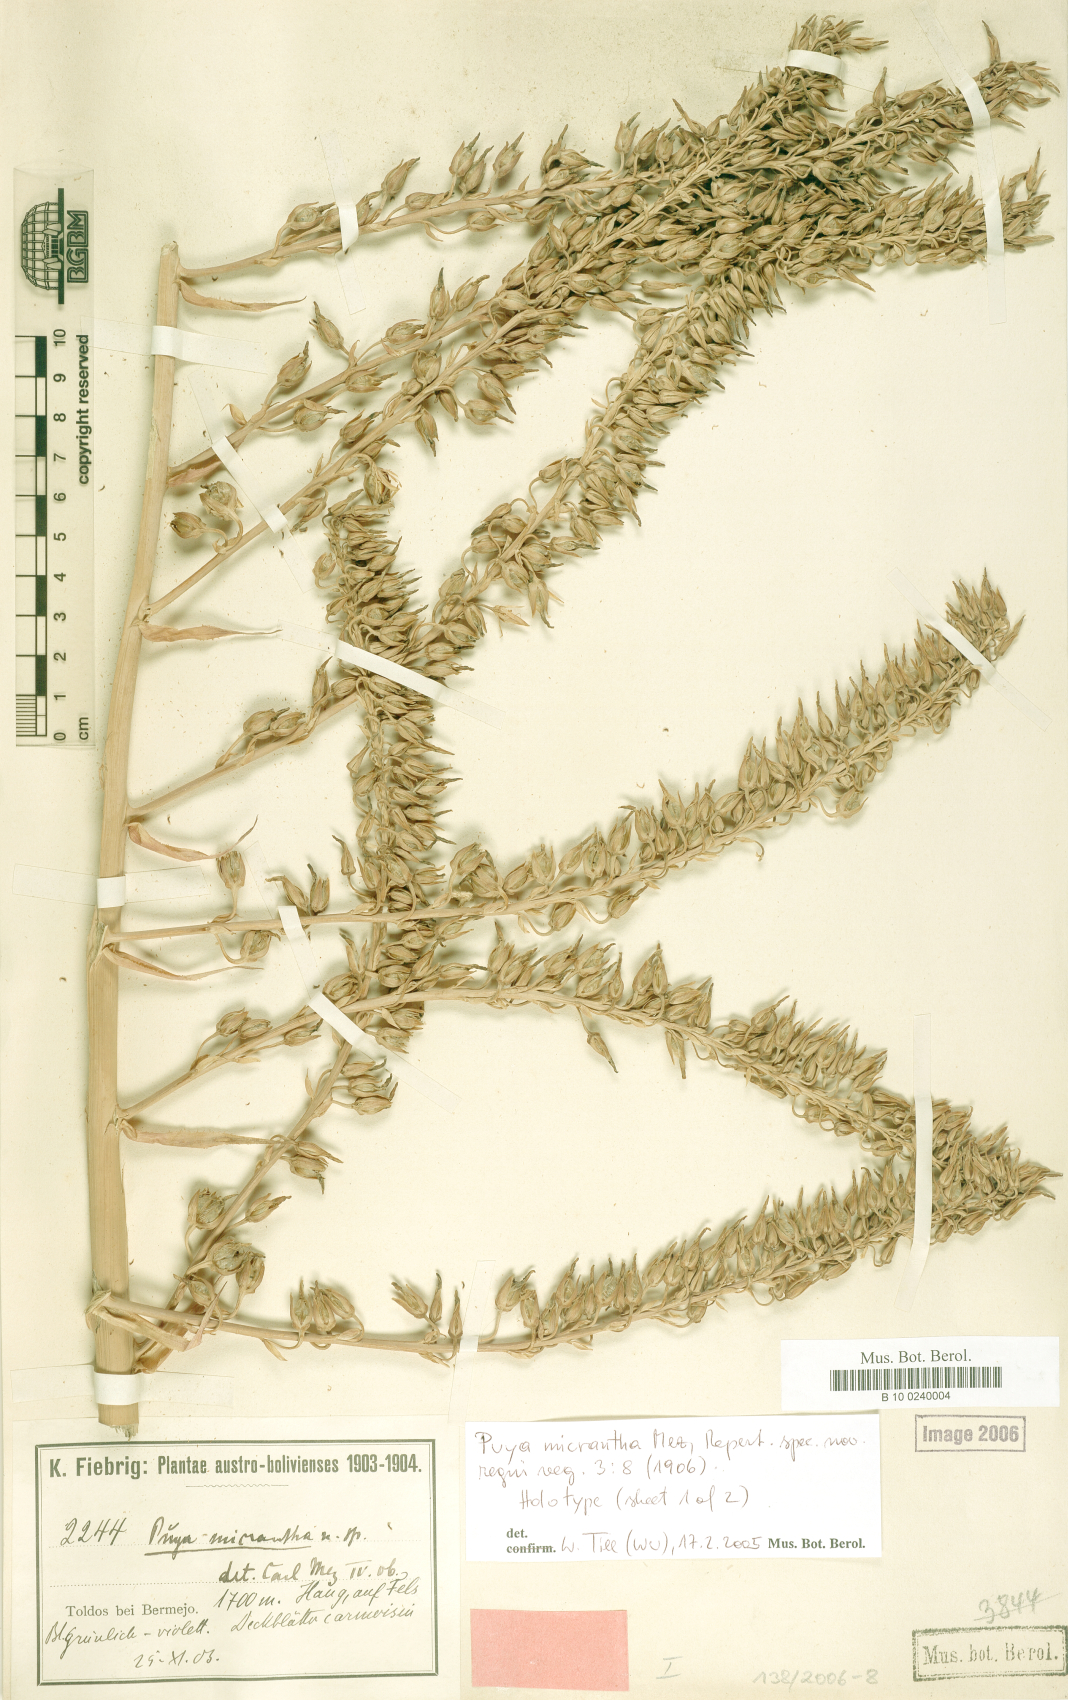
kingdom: Plantae
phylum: Tracheophyta
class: Liliopsida
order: Poales
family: Bromeliaceae
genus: Puya
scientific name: Puya micrantha
